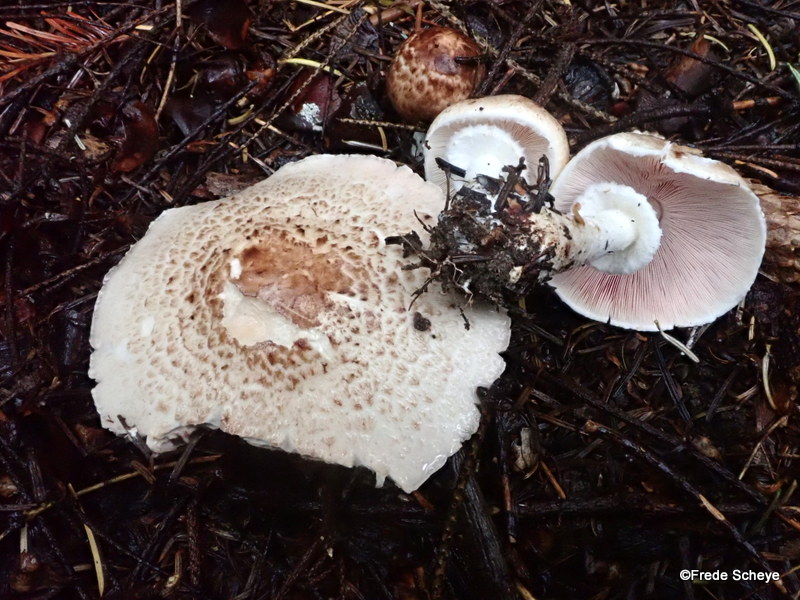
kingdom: Fungi
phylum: Basidiomycota
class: Agaricomycetes
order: Agaricales
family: Agaricaceae
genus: Agaricus
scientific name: Agaricus impudicus
